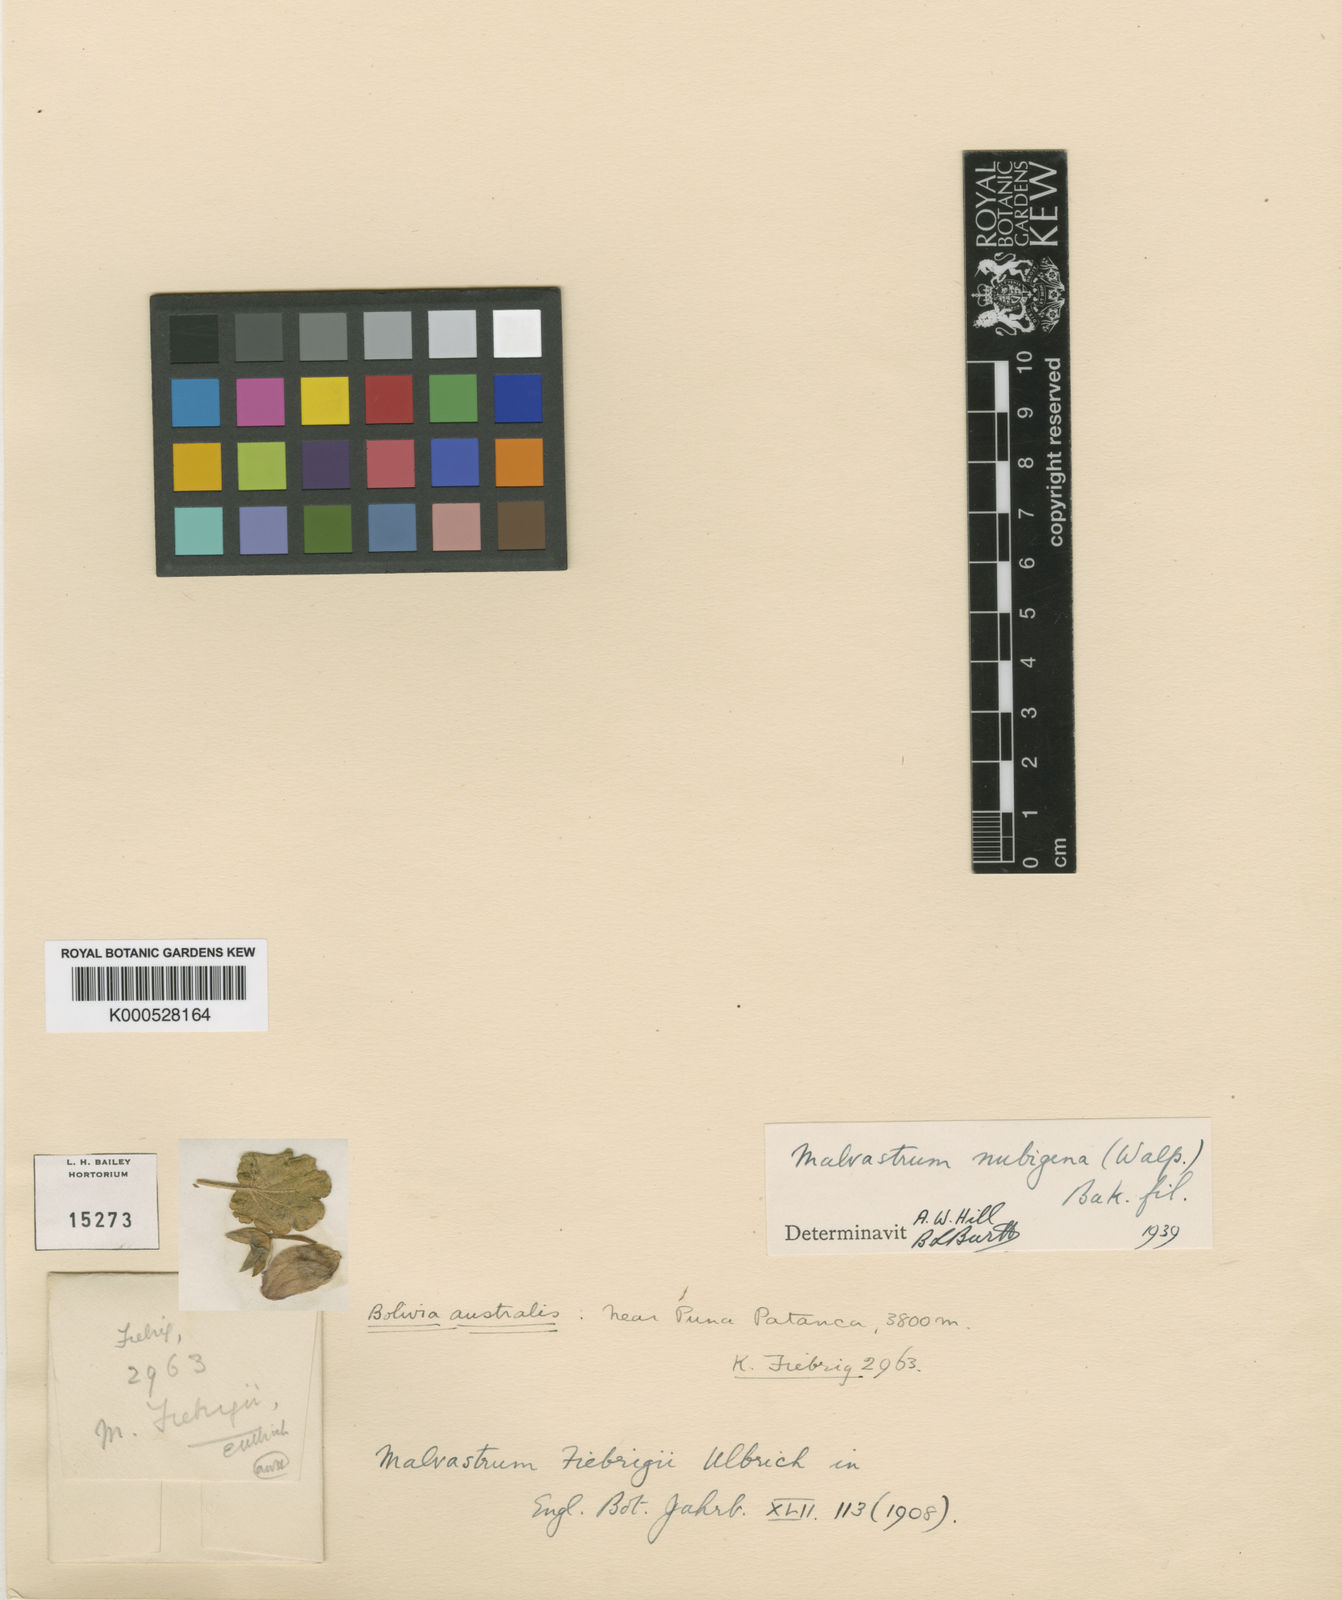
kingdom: Plantae
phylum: Tracheophyta
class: Magnoliopsida
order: Malvales
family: Malvaceae
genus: Acaulimalva
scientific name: Acaulimalva nubigena
